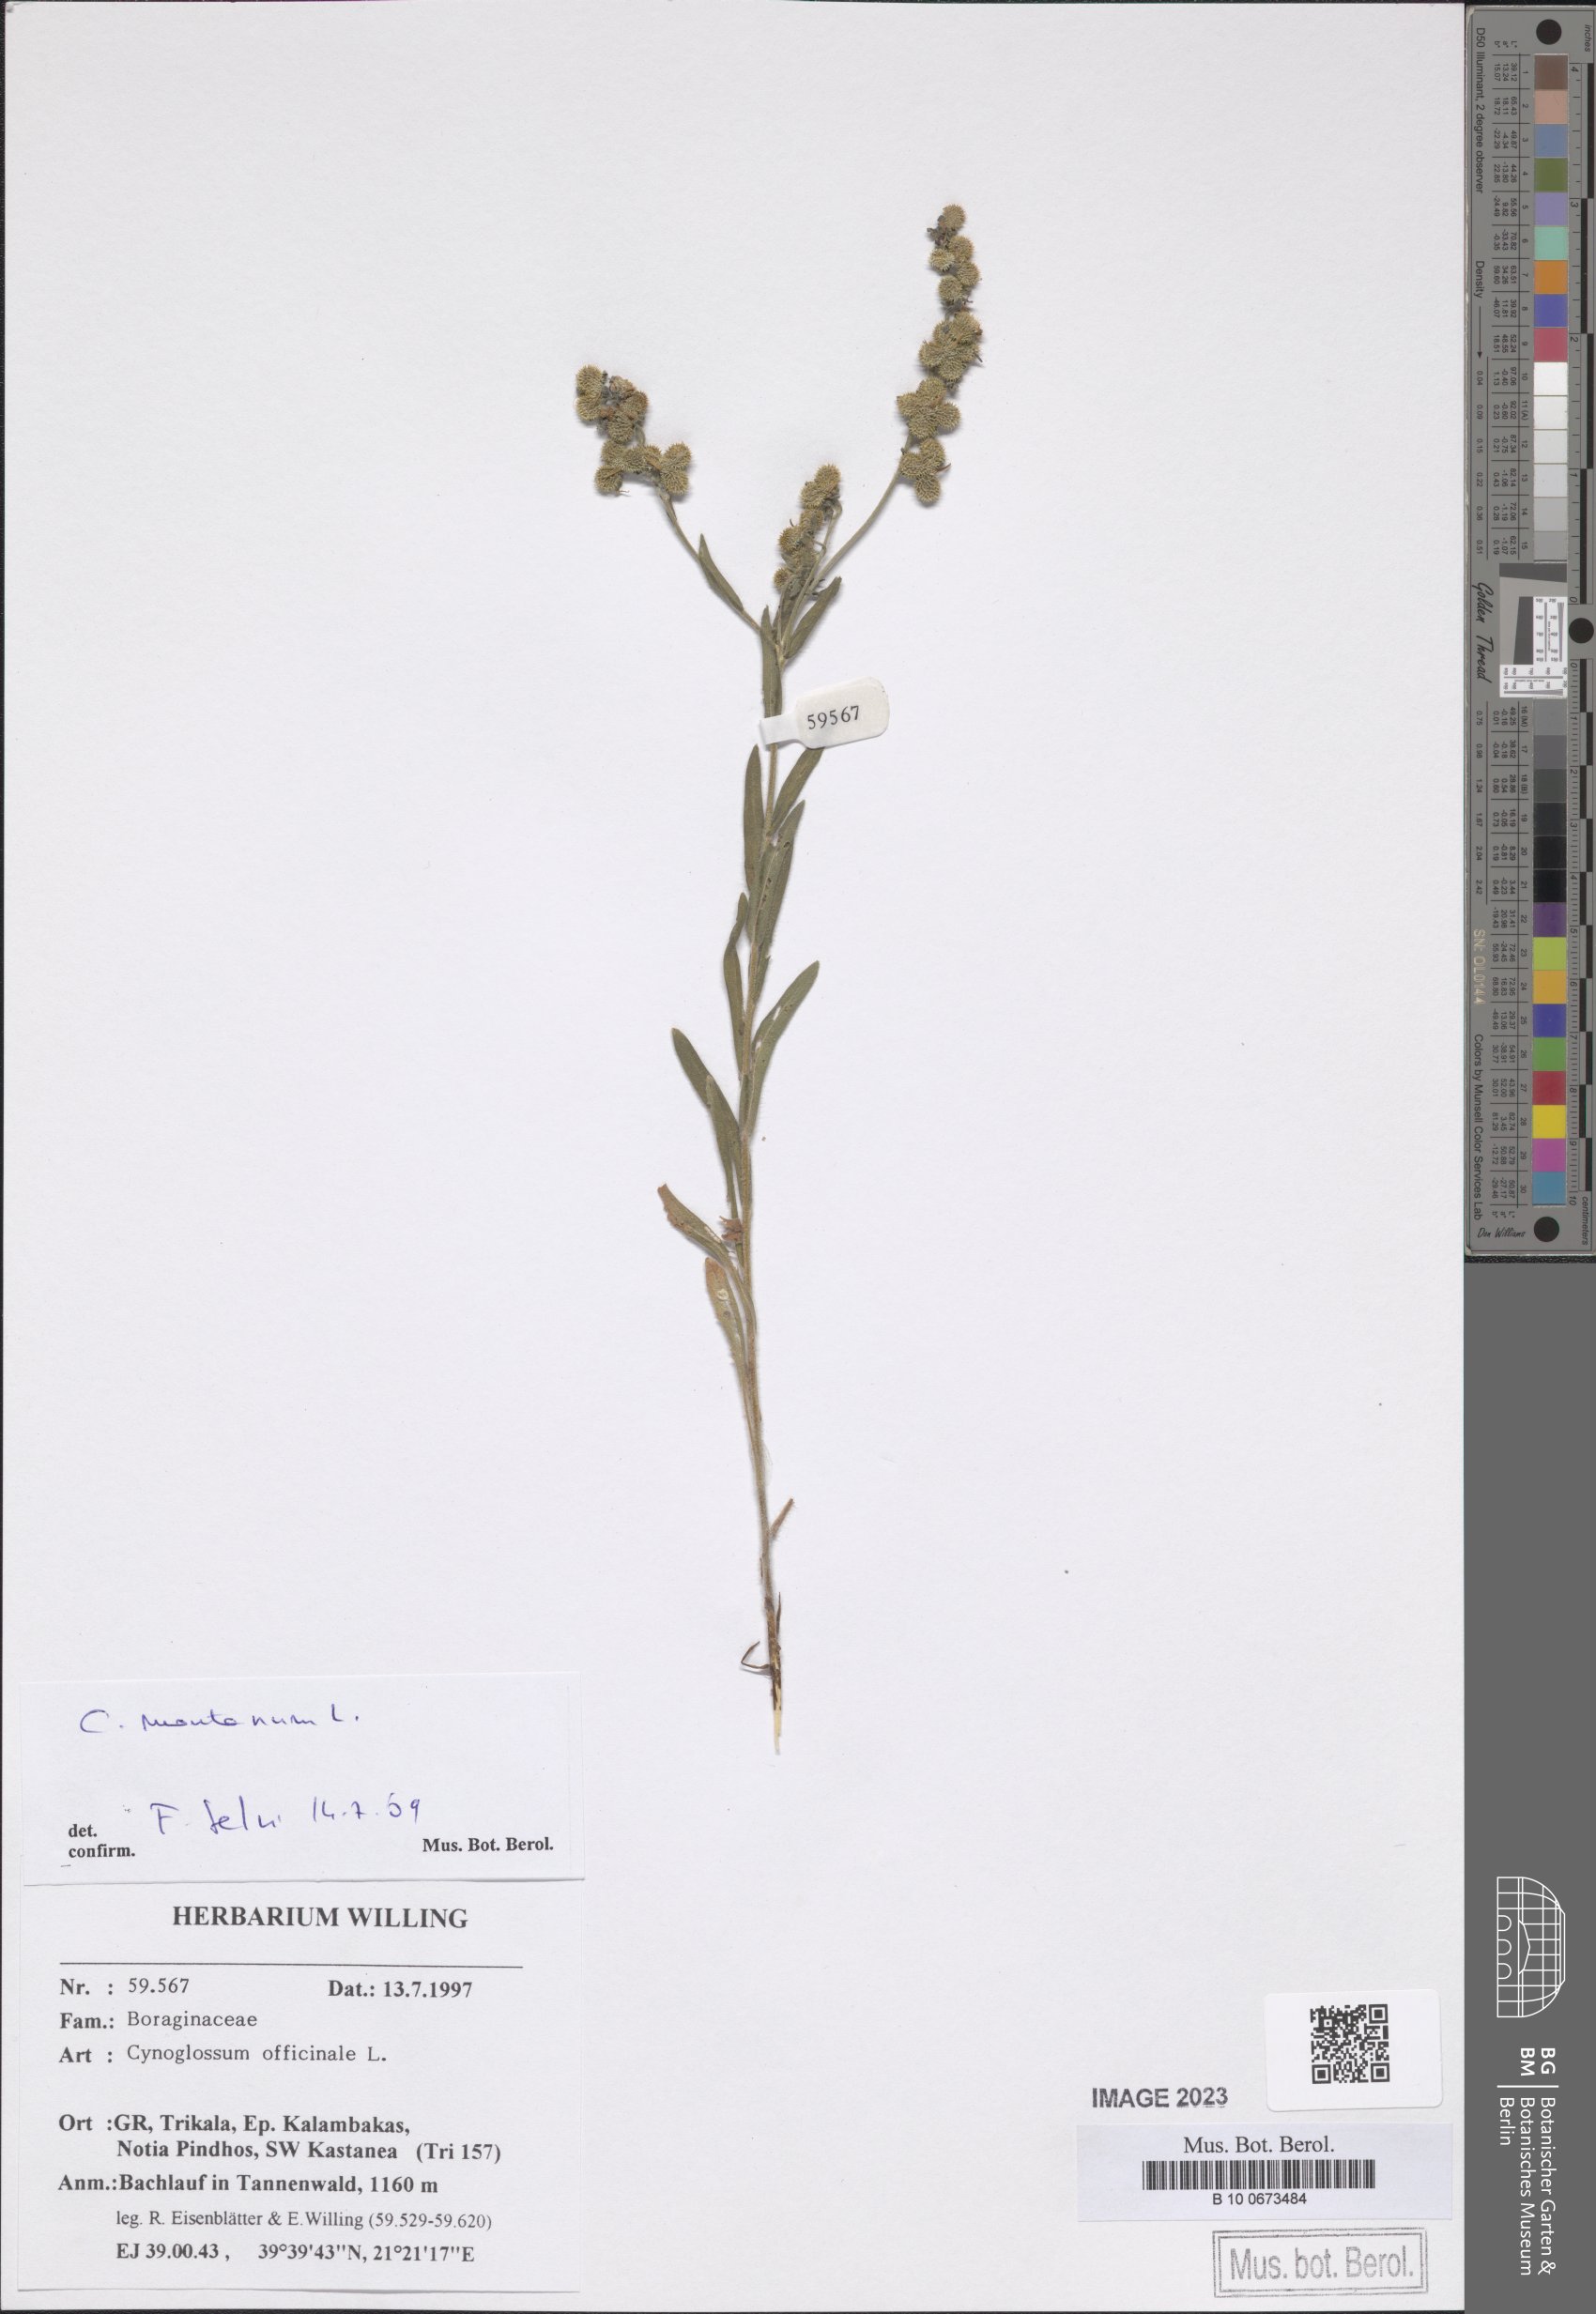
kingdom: Plantae
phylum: Tracheophyta
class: Magnoliopsida
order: Boraginales
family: Boraginaceae
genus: Cynoglossum
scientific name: Cynoglossum montanum
